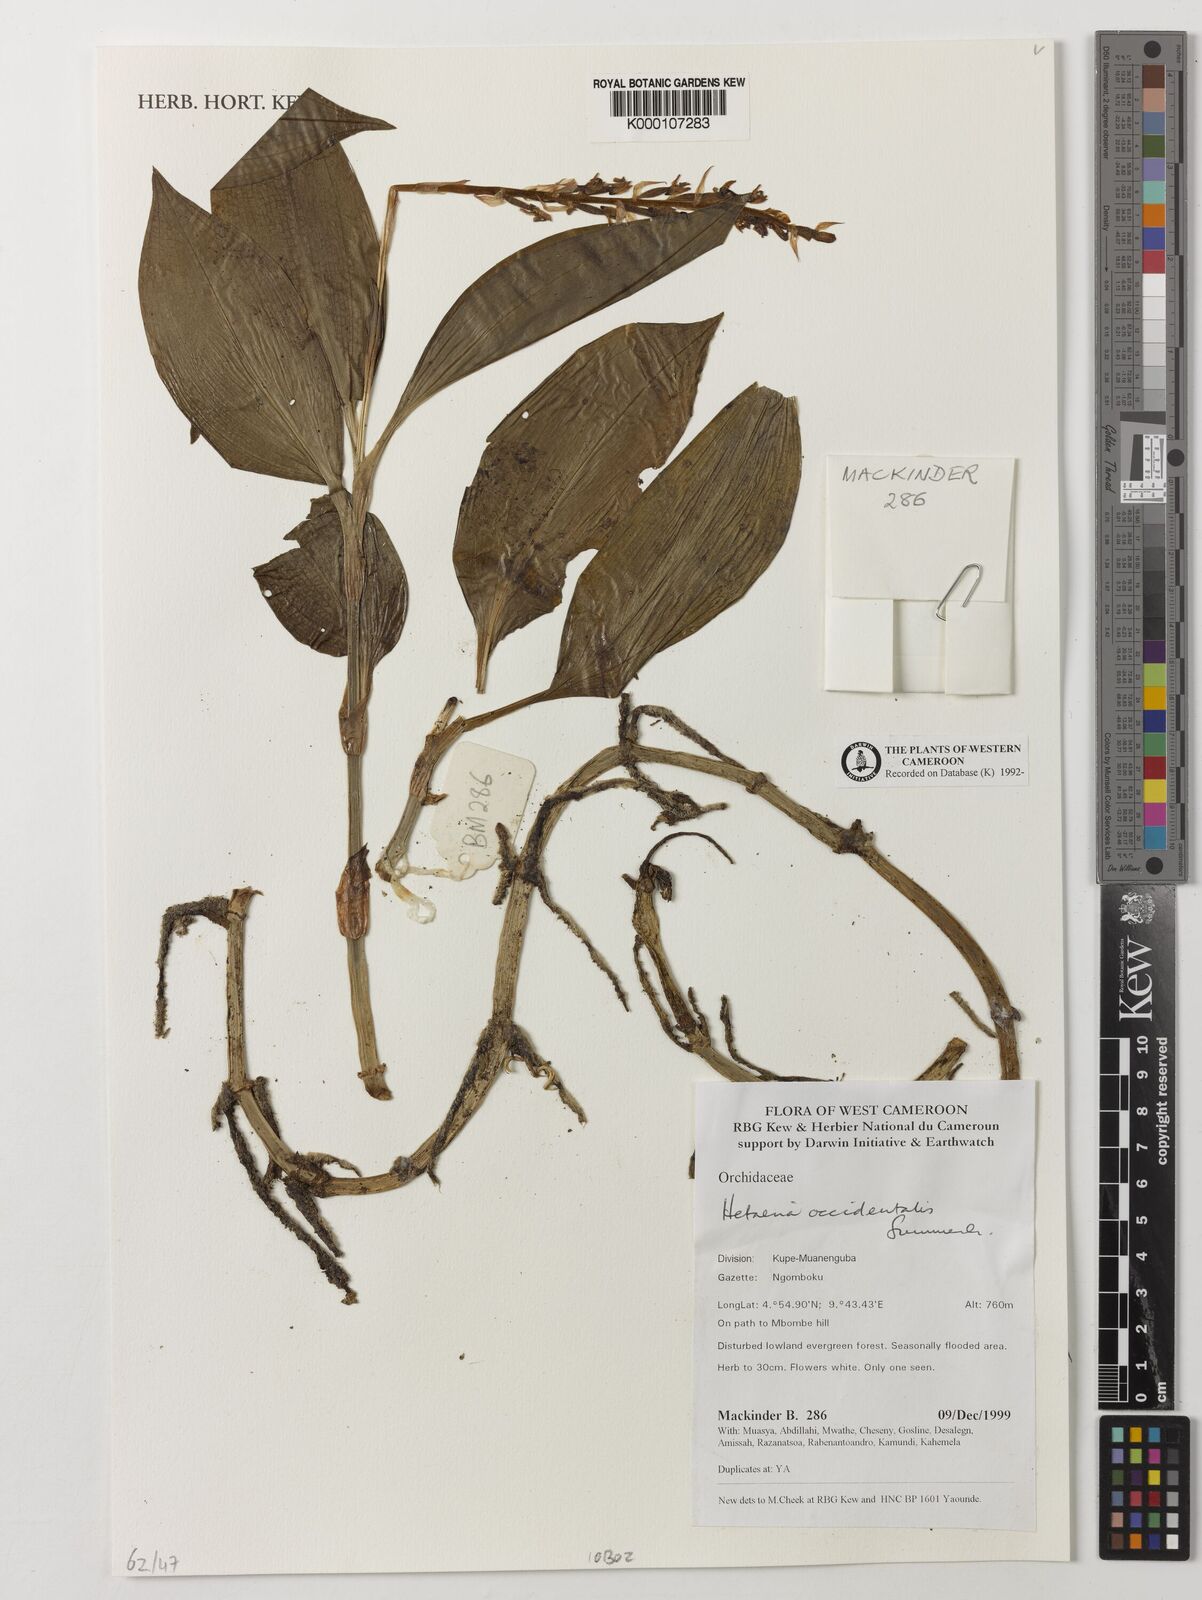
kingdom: Plantae
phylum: Tracheophyta
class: Liliopsida
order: Asparagales
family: Orchidaceae
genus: Hetaeria
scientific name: Hetaeria occidentalis
